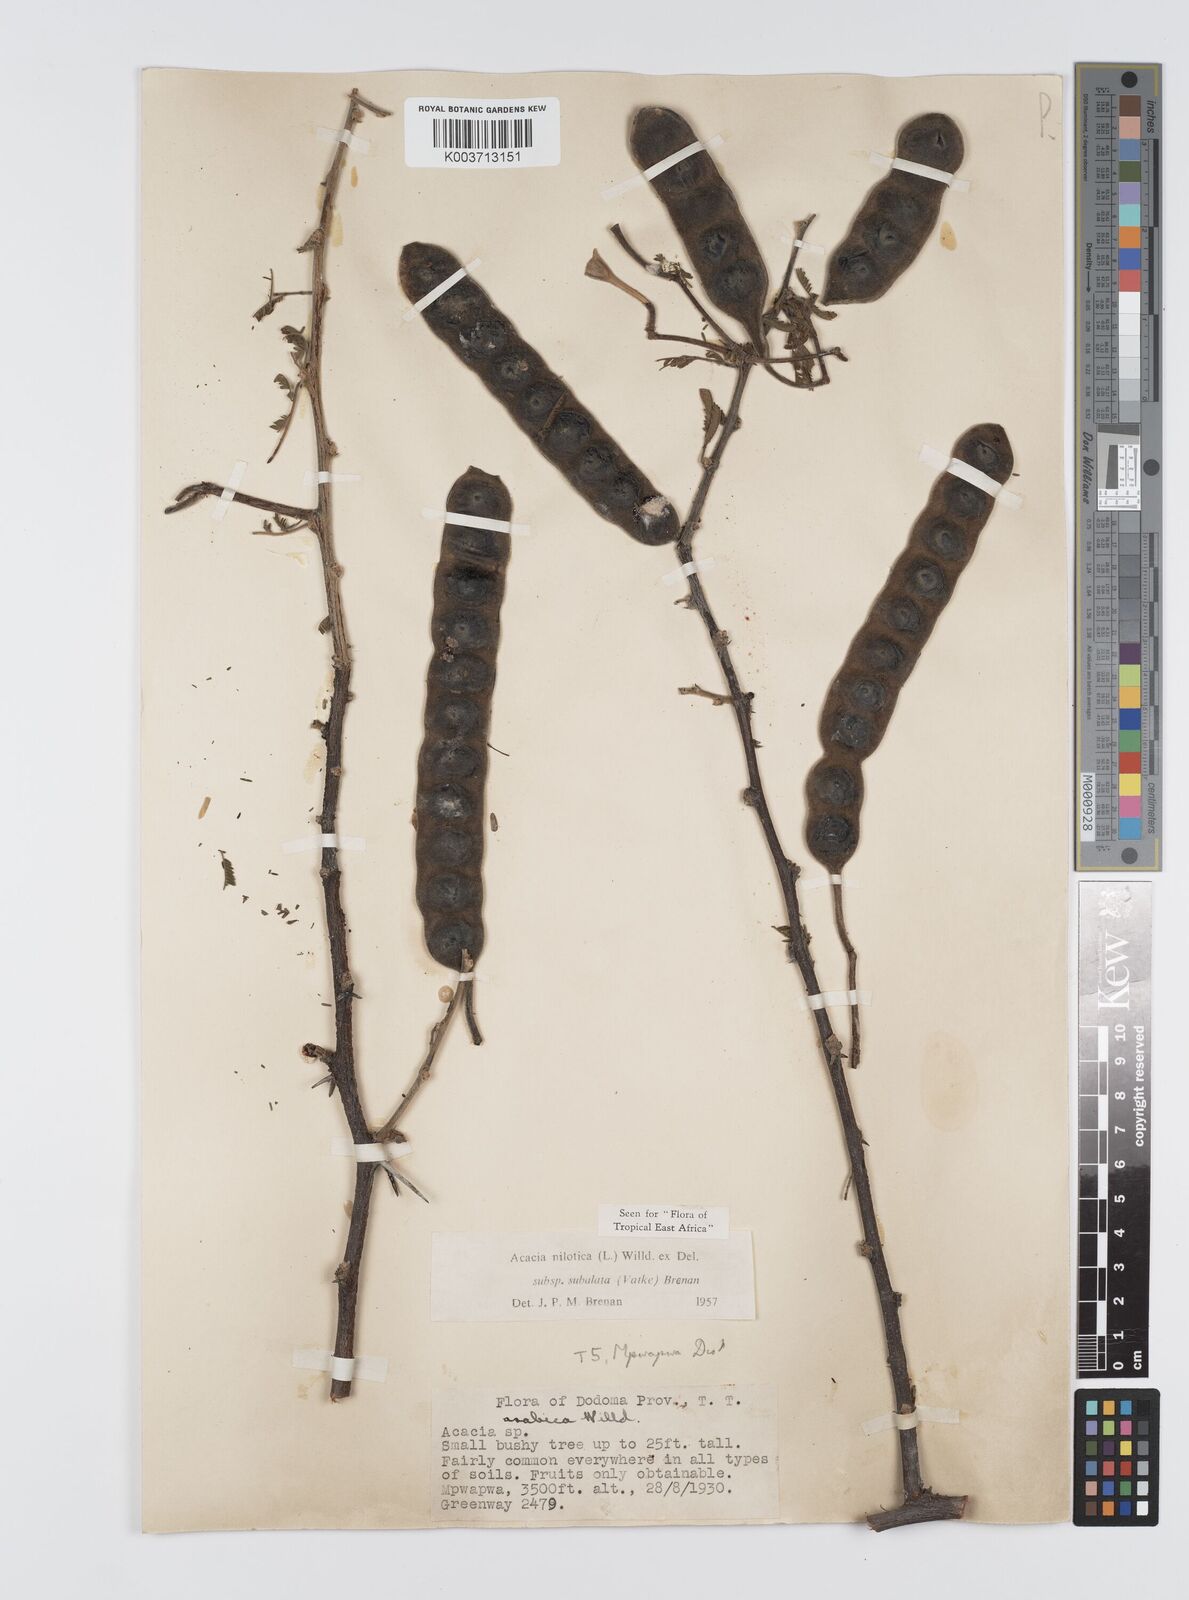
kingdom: Plantae
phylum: Tracheophyta
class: Magnoliopsida
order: Fabales
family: Fabaceae
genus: Vachellia
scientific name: Vachellia nilotica
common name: Arabic gumtree
